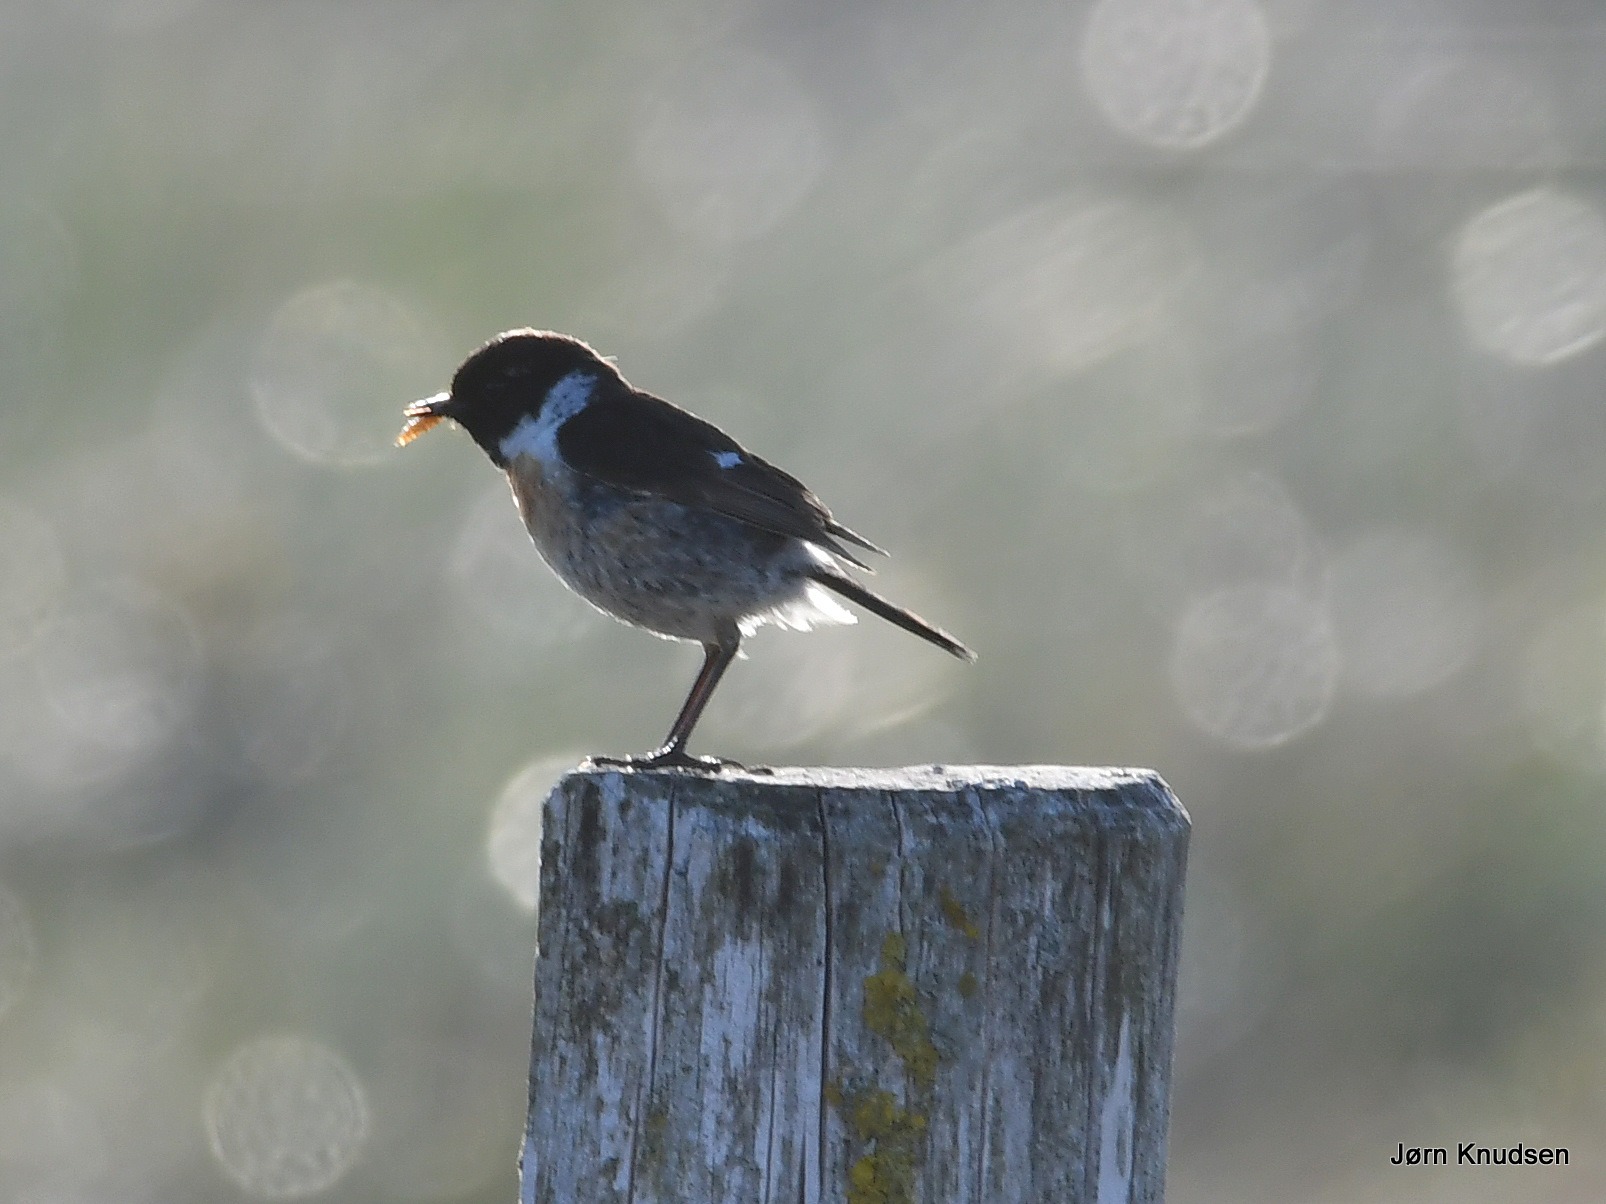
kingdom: Animalia
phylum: Chordata
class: Aves
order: Passeriformes
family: Muscicapidae
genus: Saxicola
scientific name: Saxicola rubicola
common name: Sortstrubet bynkefugl
